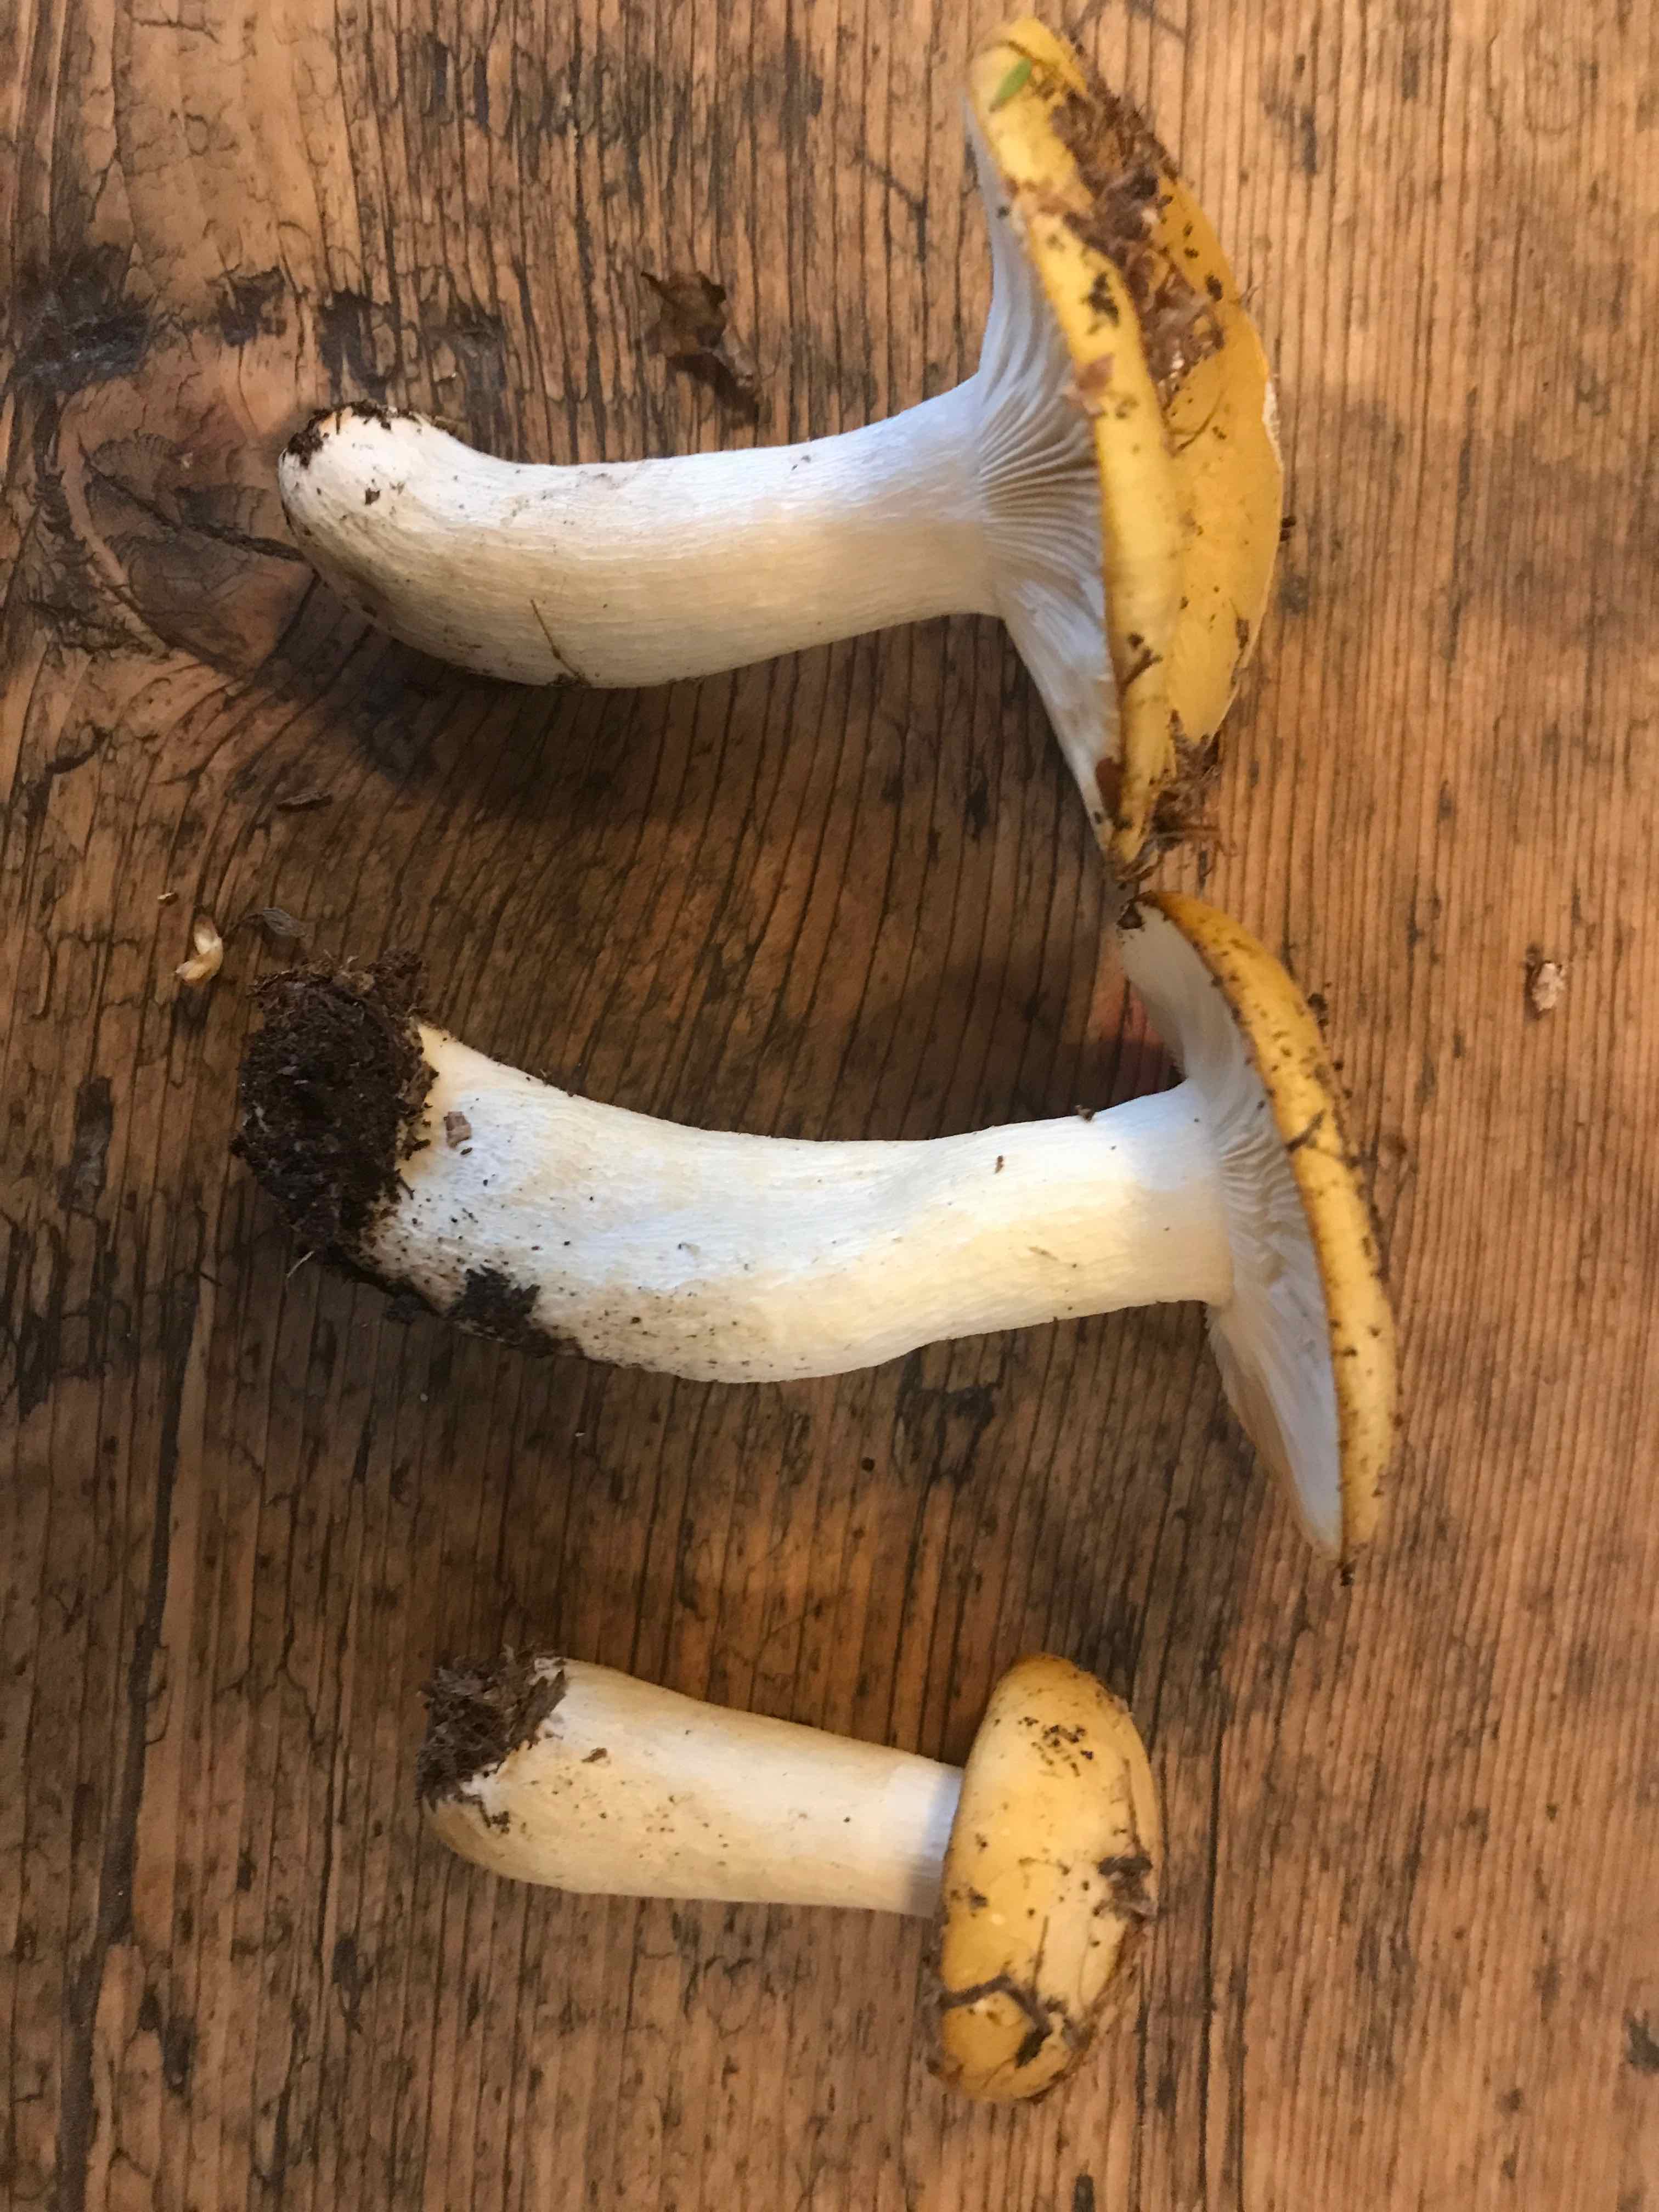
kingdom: Fungi
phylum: Basidiomycota
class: Agaricomycetes
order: Russulales
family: Russulaceae
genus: Russula
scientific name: Russula ochroleuca
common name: okkergul skørhat
